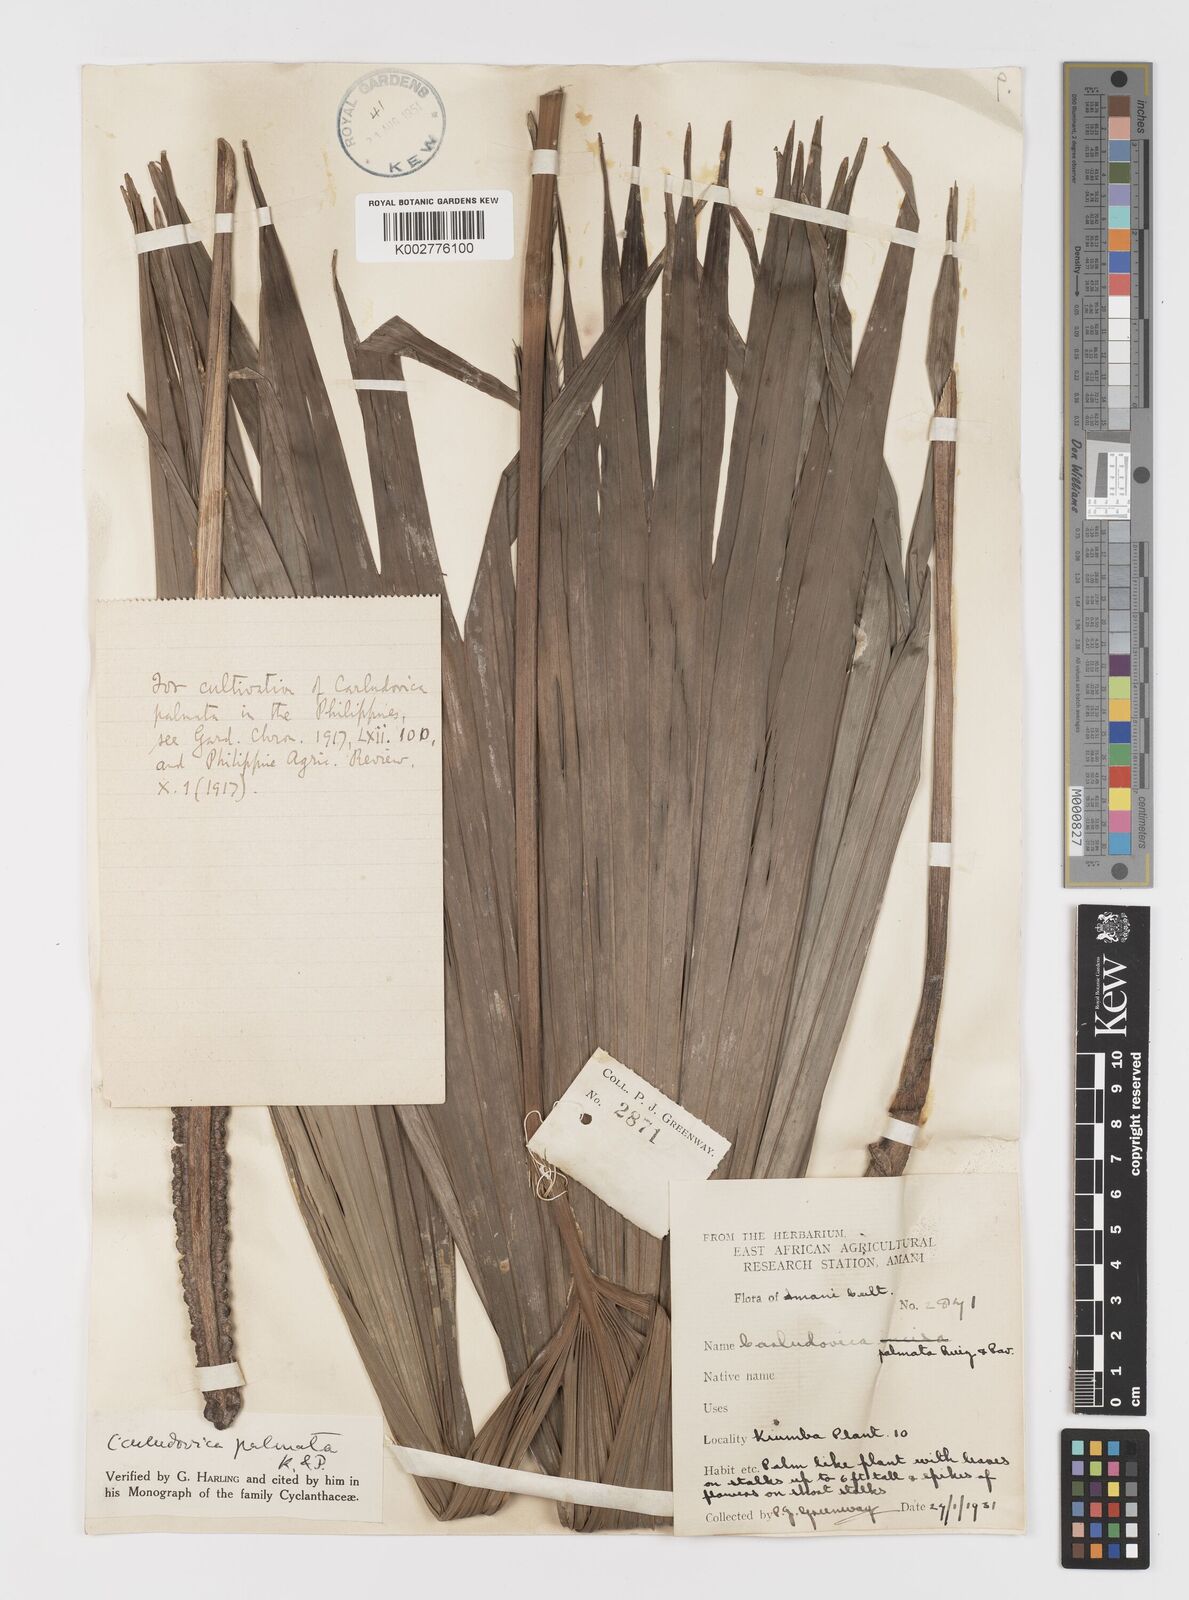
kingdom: Plantae
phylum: Tracheophyta
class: Liliopsida
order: Pandanales
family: Cyclanthaceae
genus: Carludovica
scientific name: Carludovica palmata
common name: Panama hat plant
